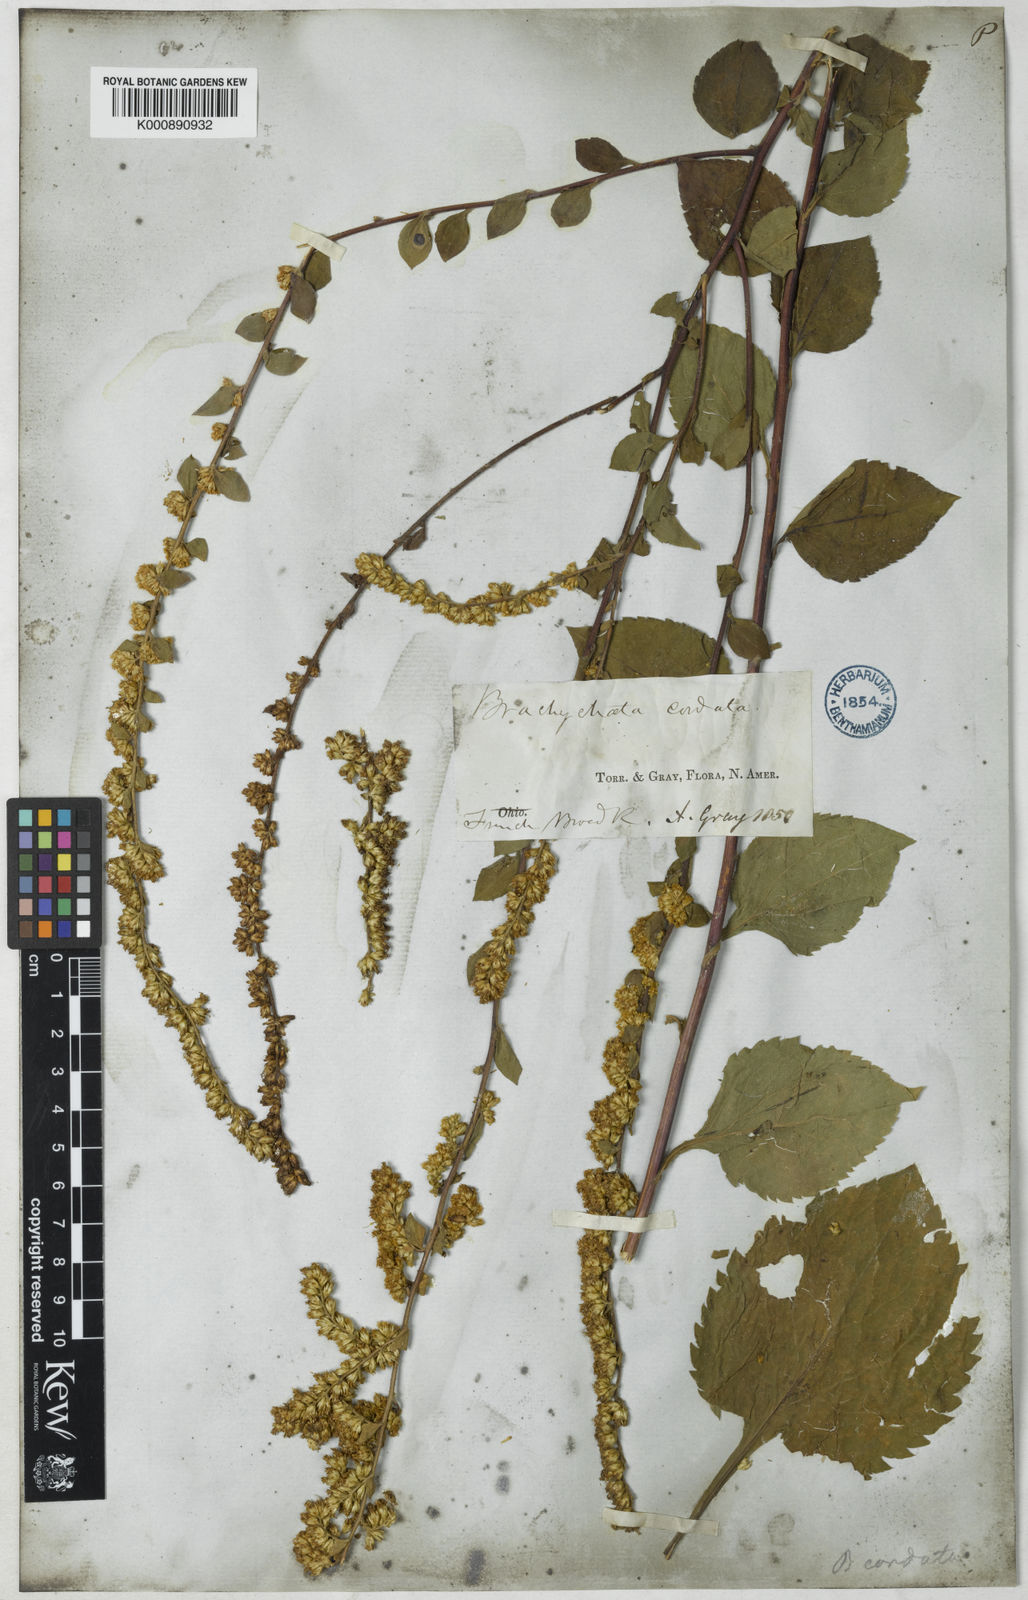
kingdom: Plantae
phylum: Tracheophyta
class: Magnoliopsida
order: Asterales
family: Asteraceae
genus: Solidago
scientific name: Solidago sphacelata
